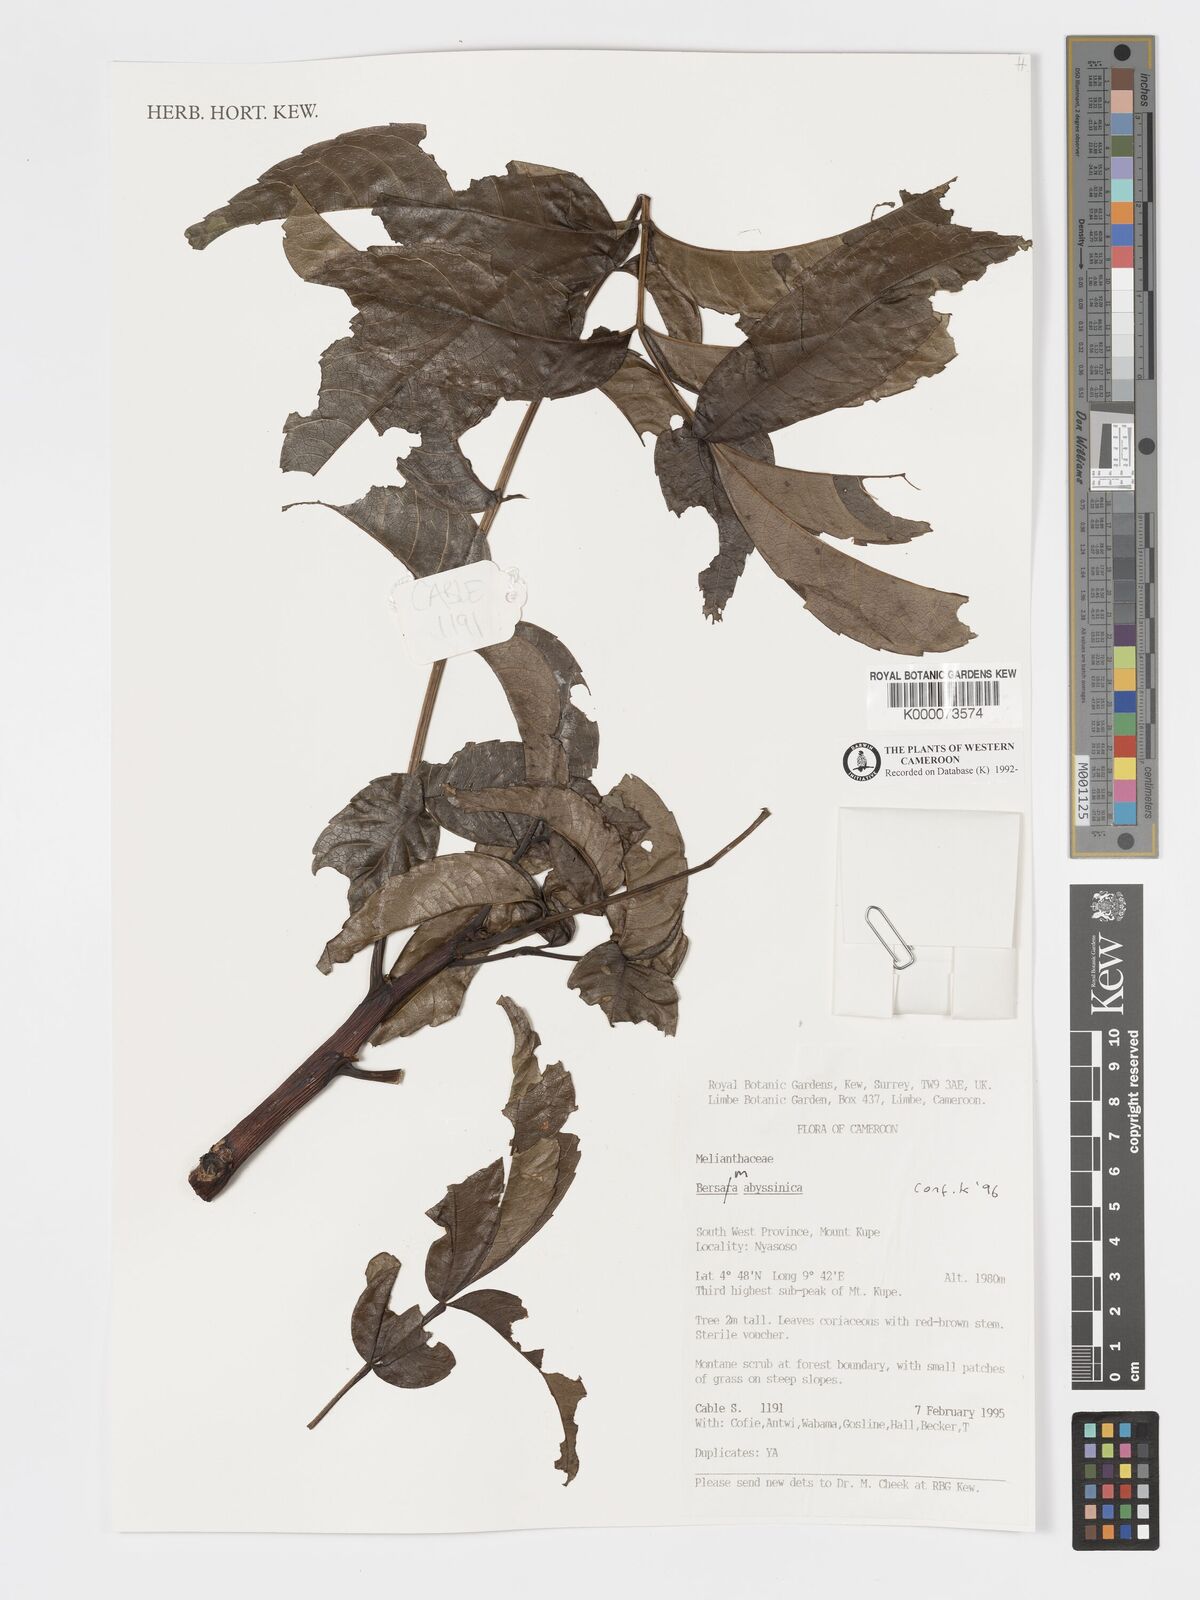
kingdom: Plantae
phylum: Tracheophyta
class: Magnoliopsida
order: Geraniales
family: Melianthaceae
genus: Bersama
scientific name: Bersama abyssinica
